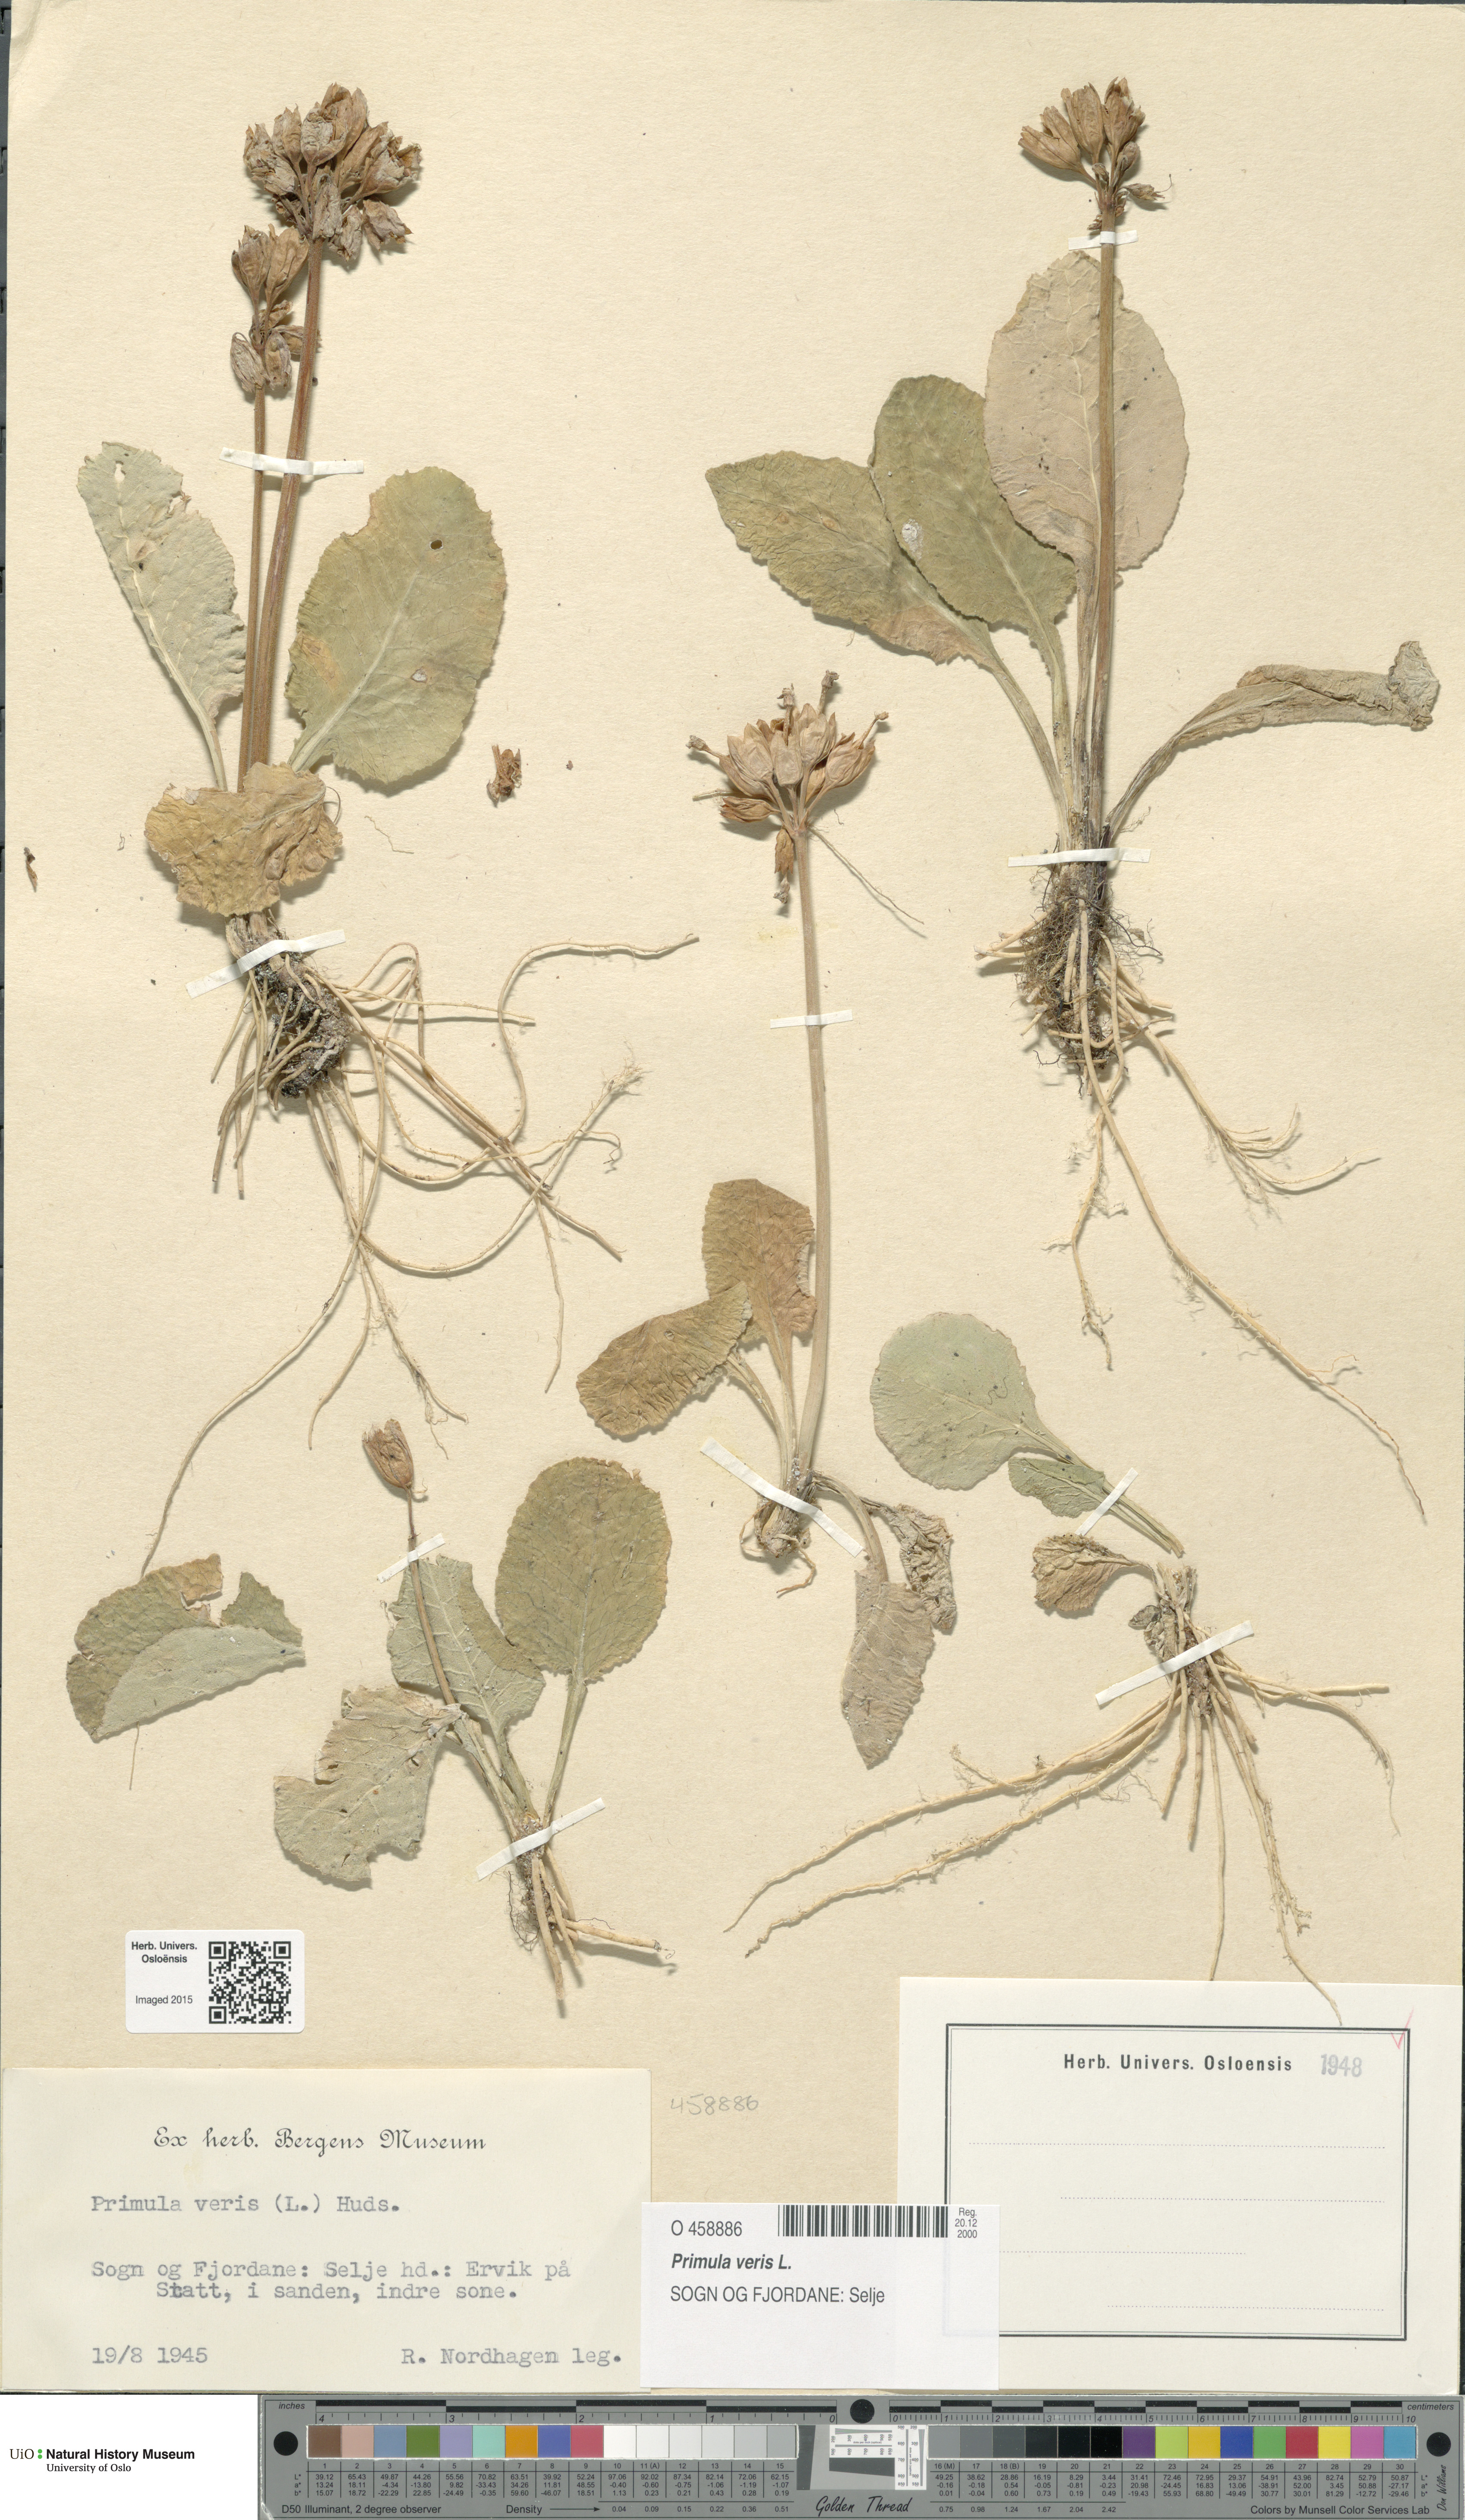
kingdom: Plantae
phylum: Tracheophyta
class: Magnoliopsida
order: Ericales
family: Primulaceae
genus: Primula
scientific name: Primula veris
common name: Cowslip
